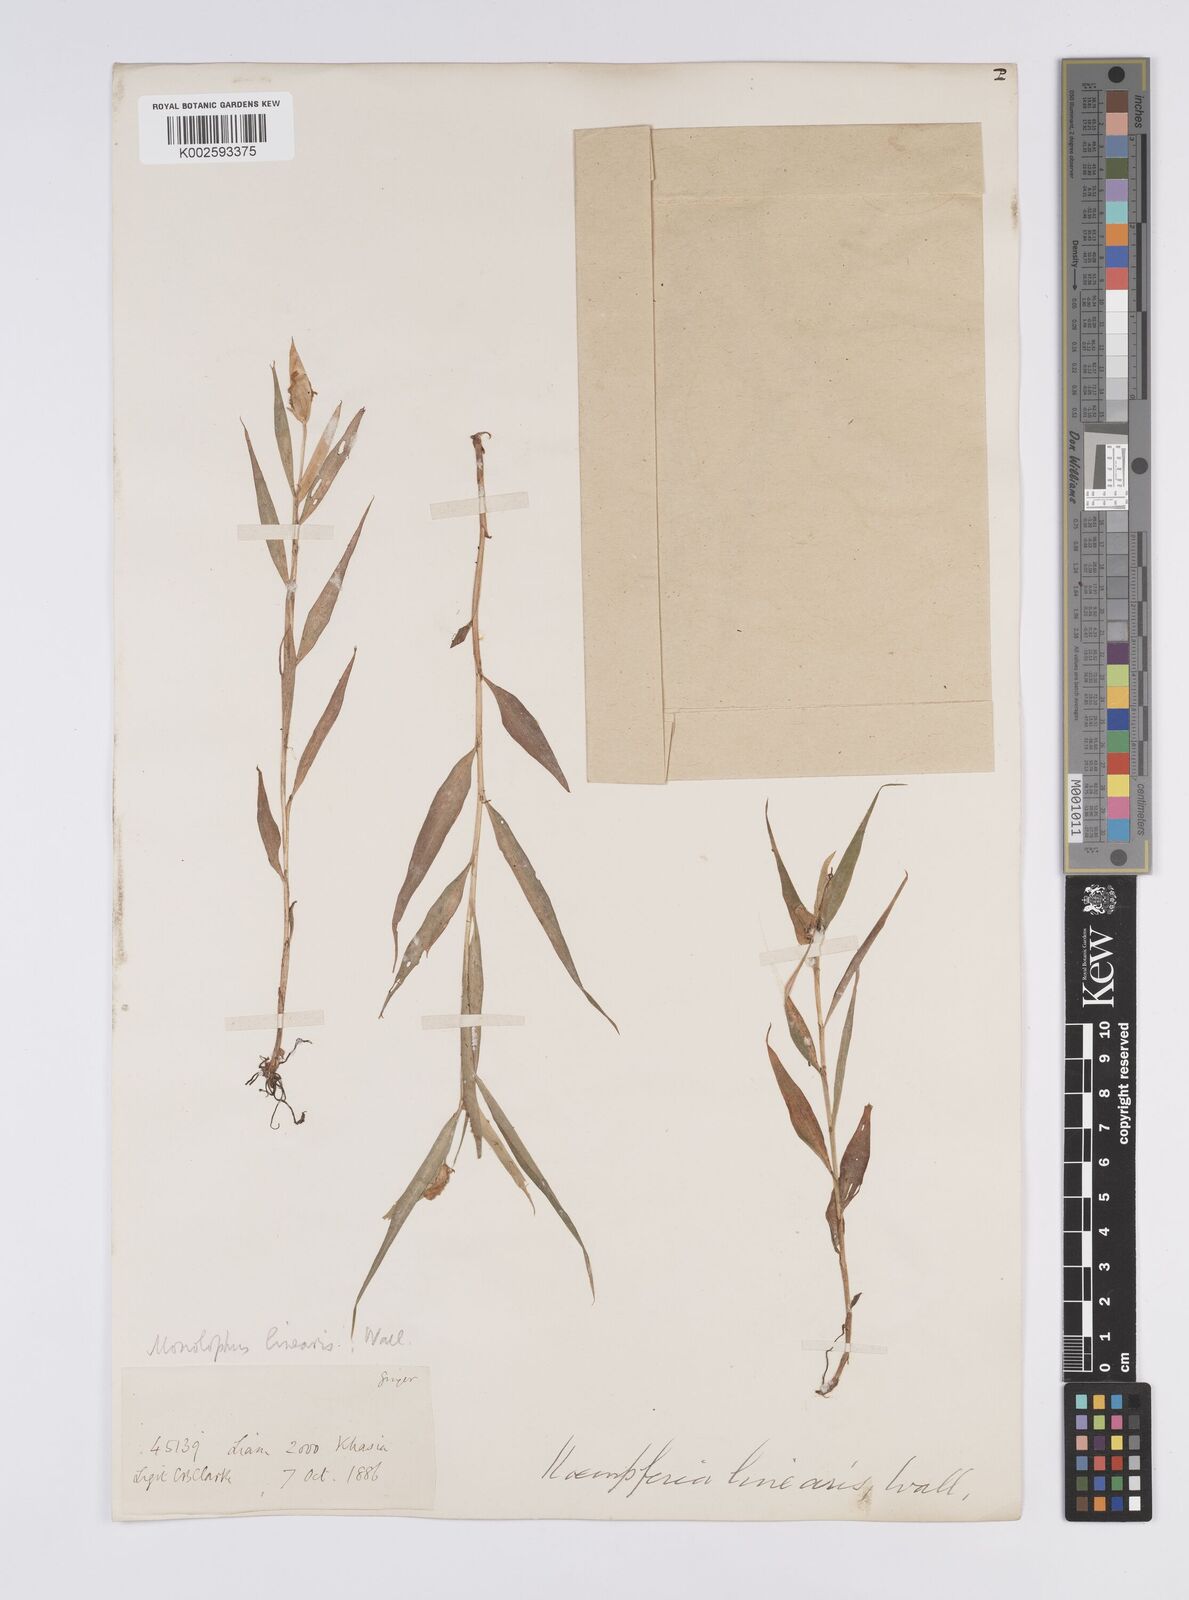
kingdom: Plantae
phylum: Tracheophyta
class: Liliopsida
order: Zingiberales
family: Zingiberaceae
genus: Caulokaempferia
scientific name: Caulokaempferia linearis
